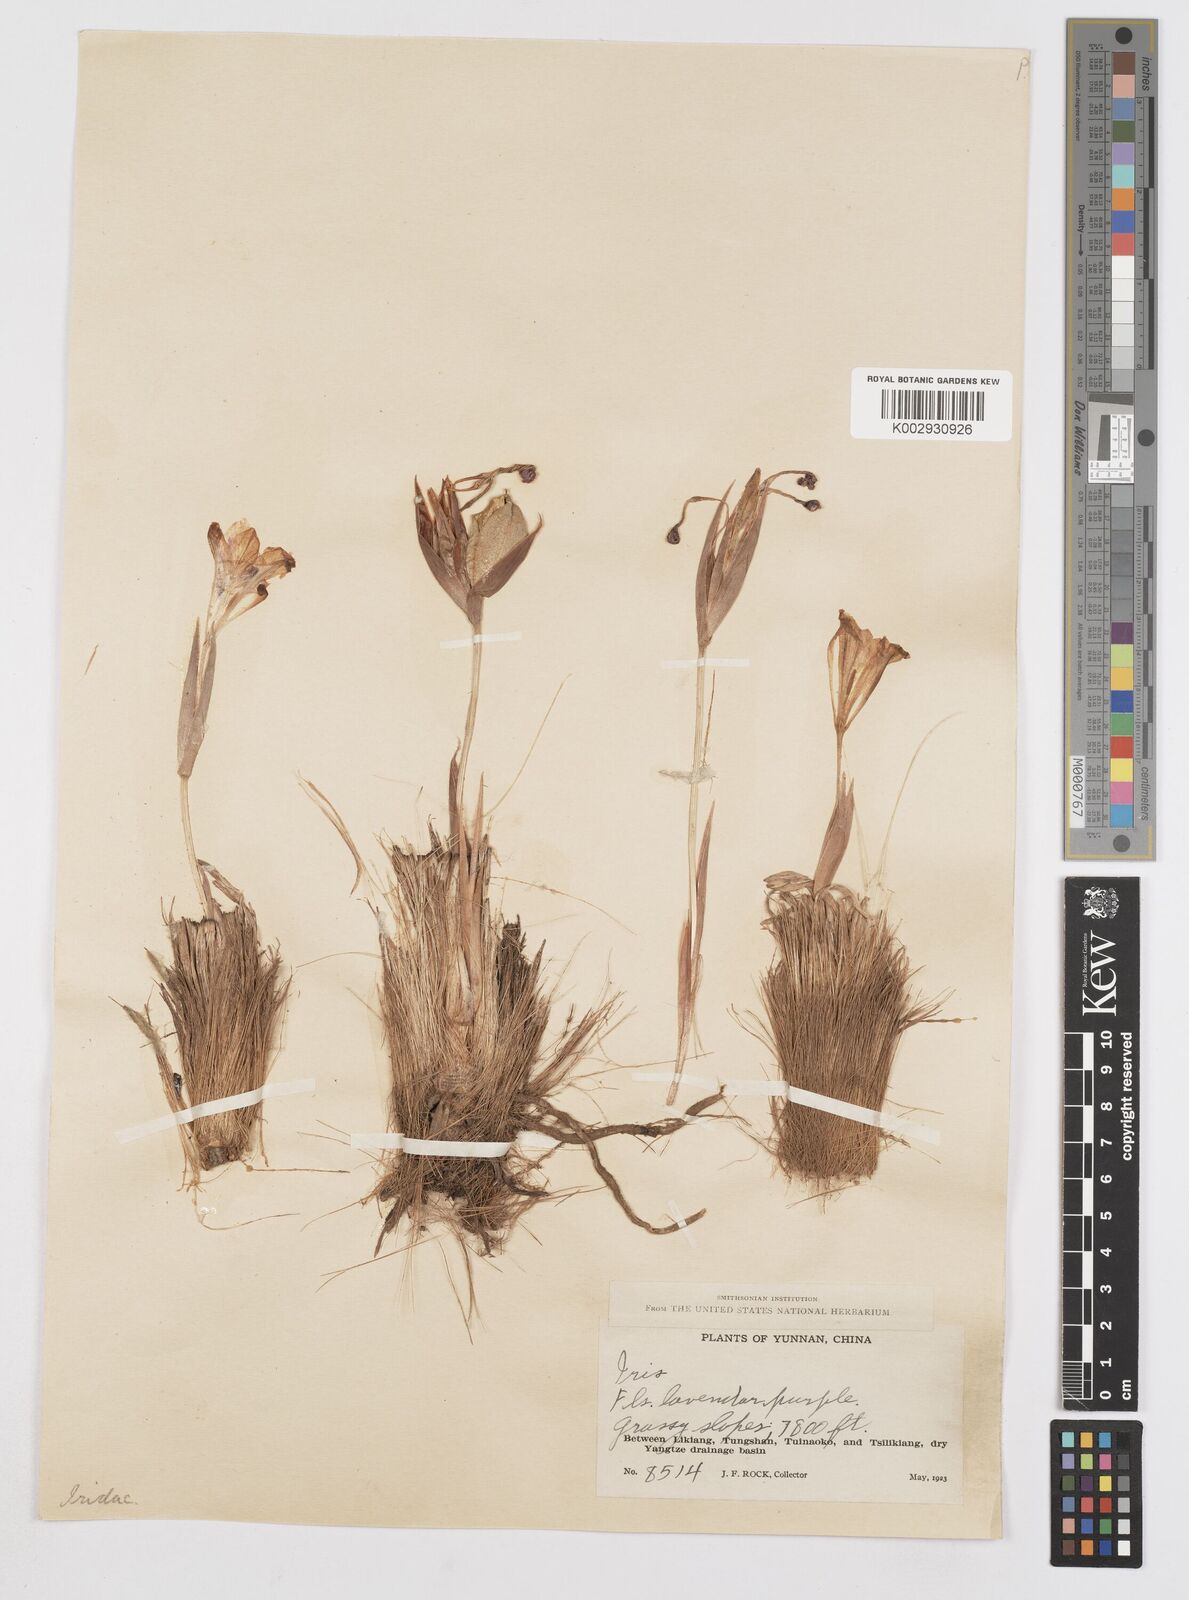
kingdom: Plantae
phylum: Tracheophyta
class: Liliopsida
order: Asparagales
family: Iridaceae
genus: Iris
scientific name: Iris collettii
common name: Plateau iris
